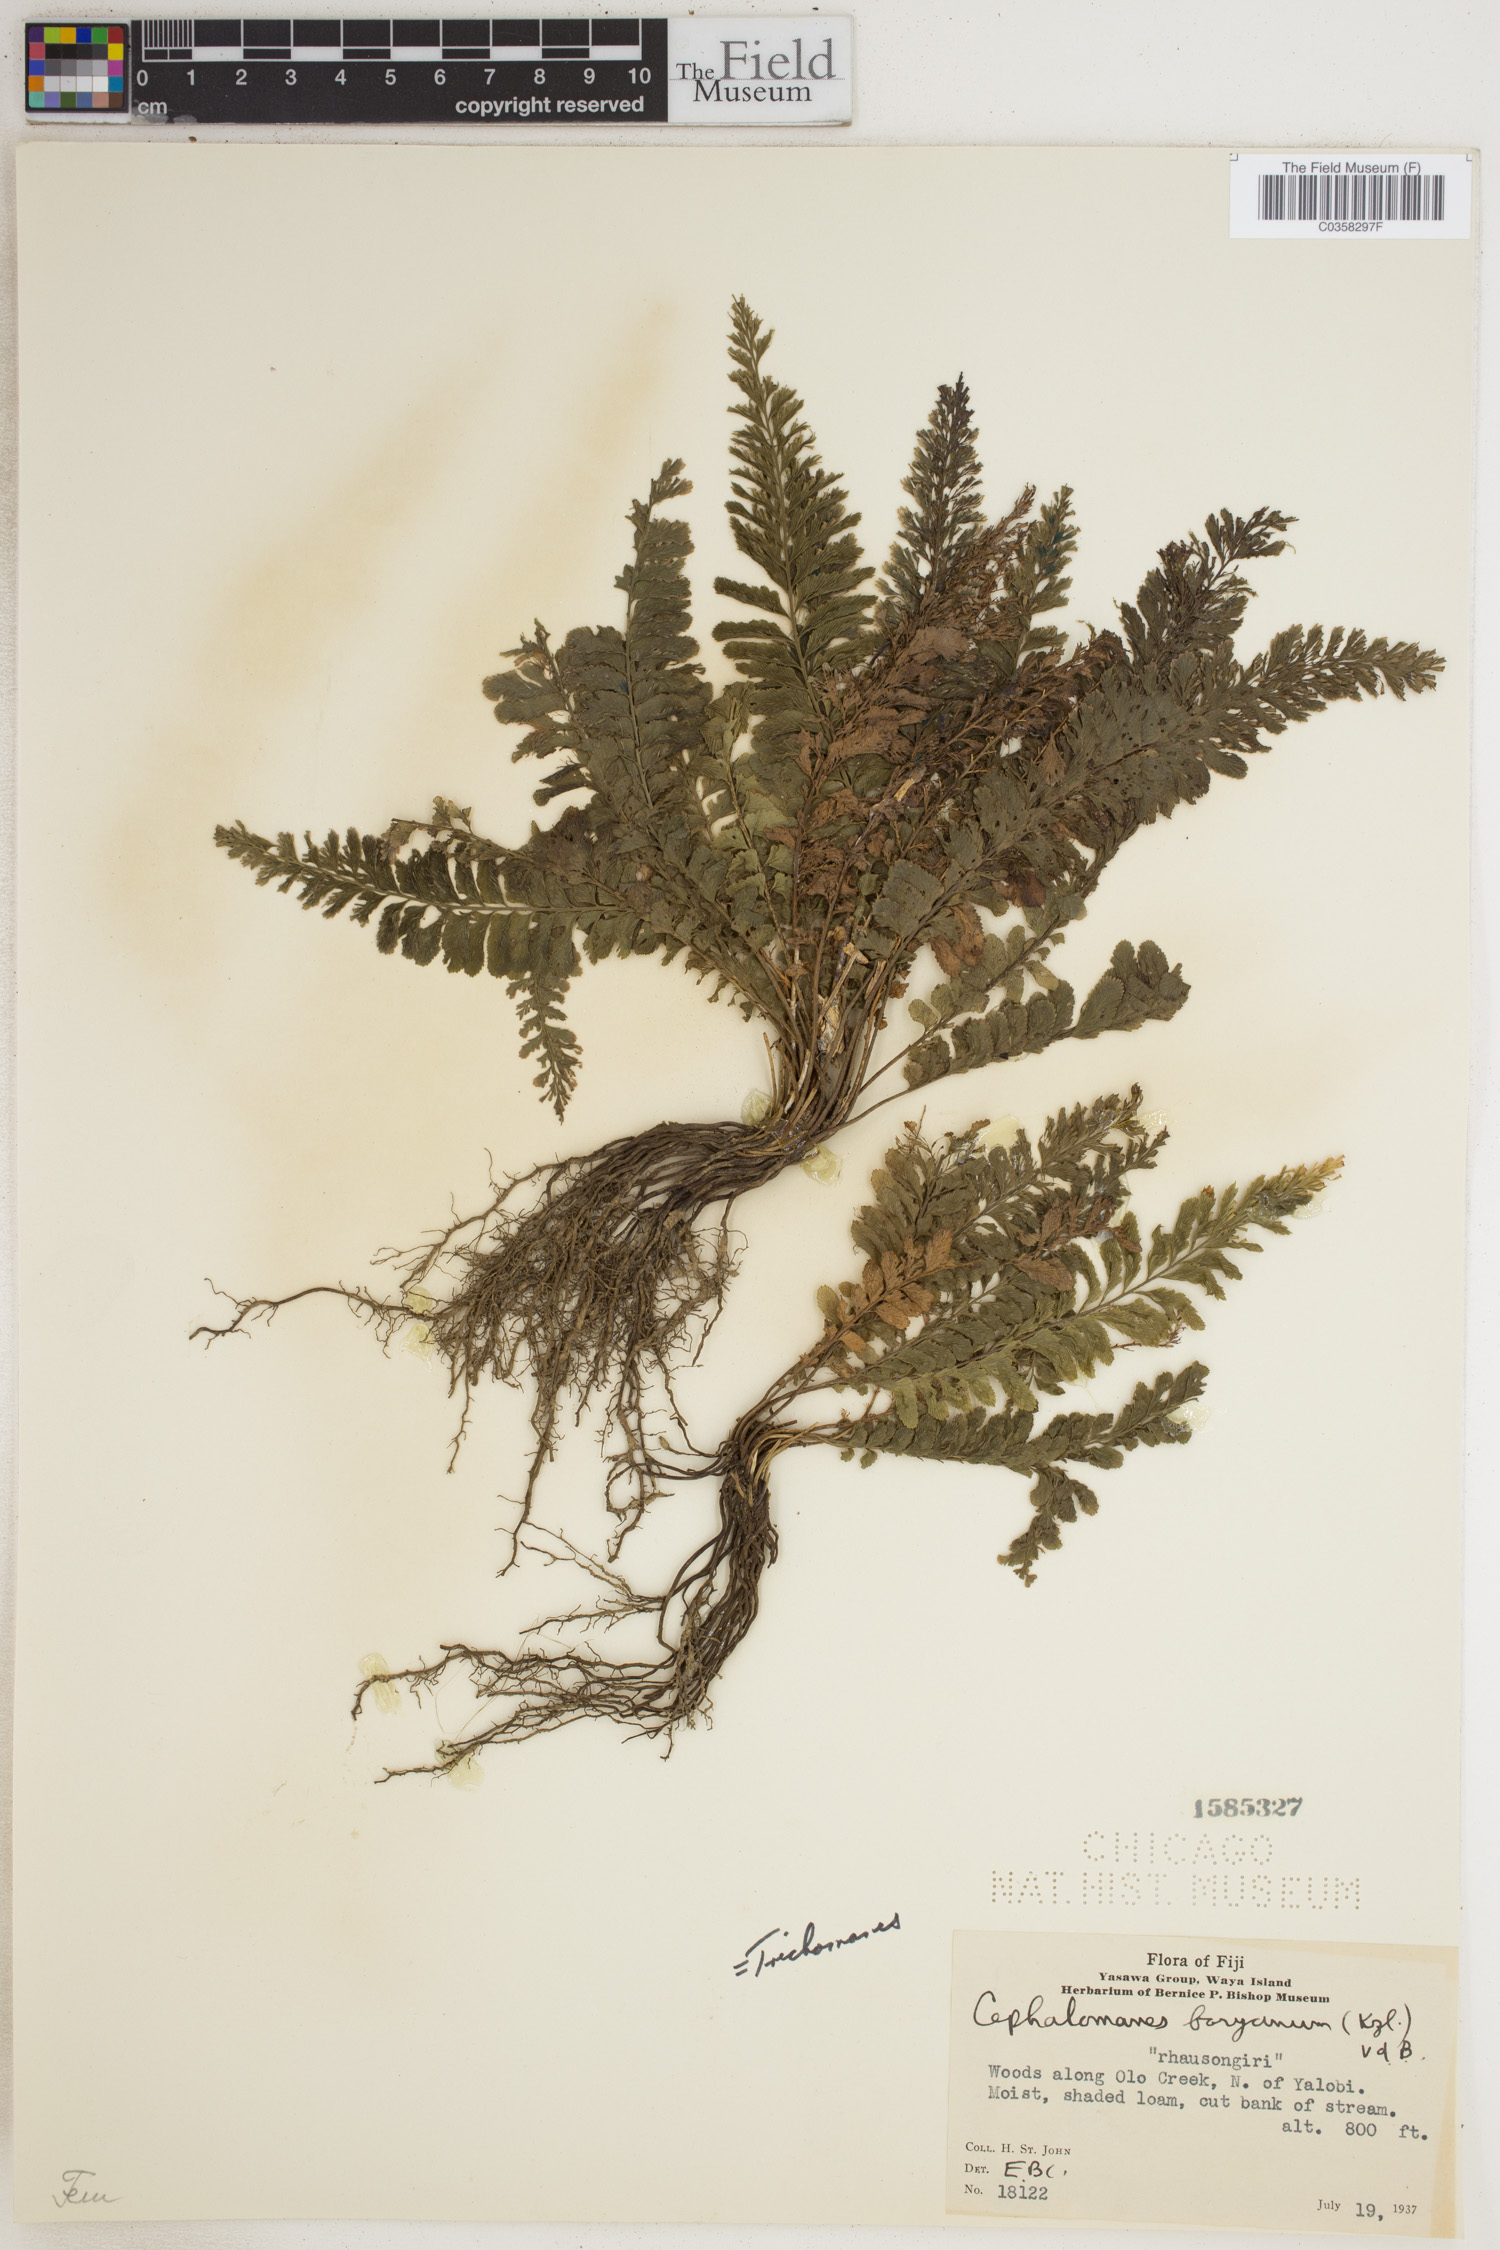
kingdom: Plantae
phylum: Tracheophyta
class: Polypodiopsida
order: Hymenophyllales
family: Hymenophyllaceae
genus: Cephalomanes
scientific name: Cephalomanes boryanum
